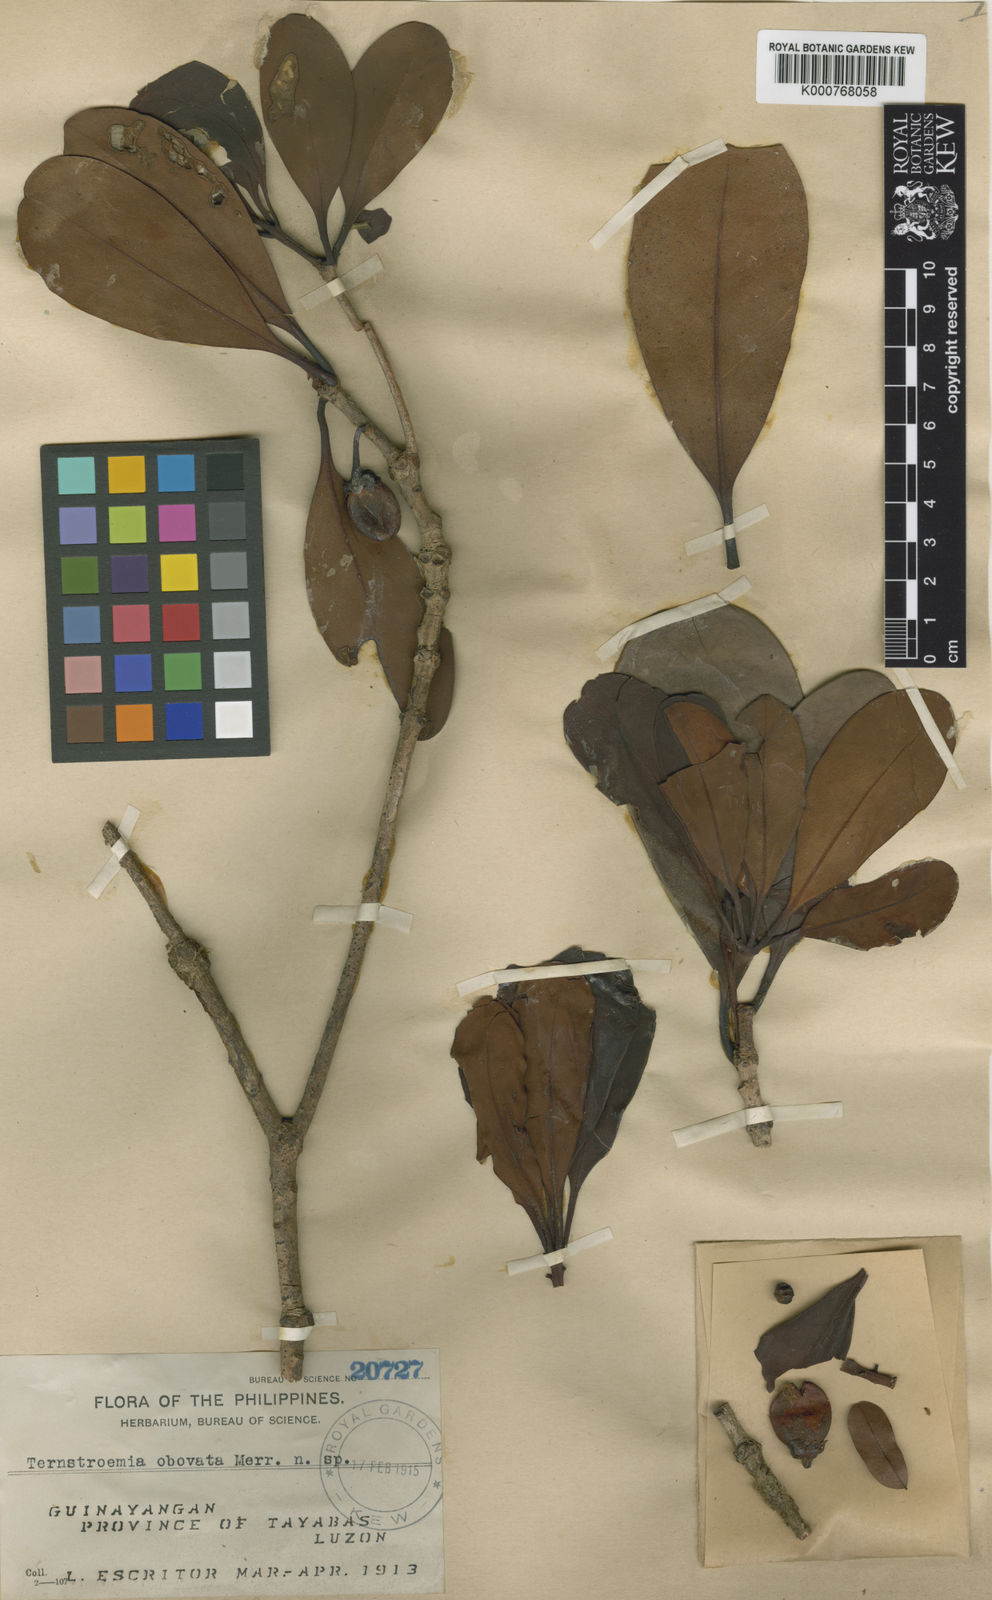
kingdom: Plantae
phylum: Tracheophyta
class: Magnoliopsida
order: Ericales
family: Pentaphylacaceae
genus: Ternstroemia
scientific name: Ternstroemia
